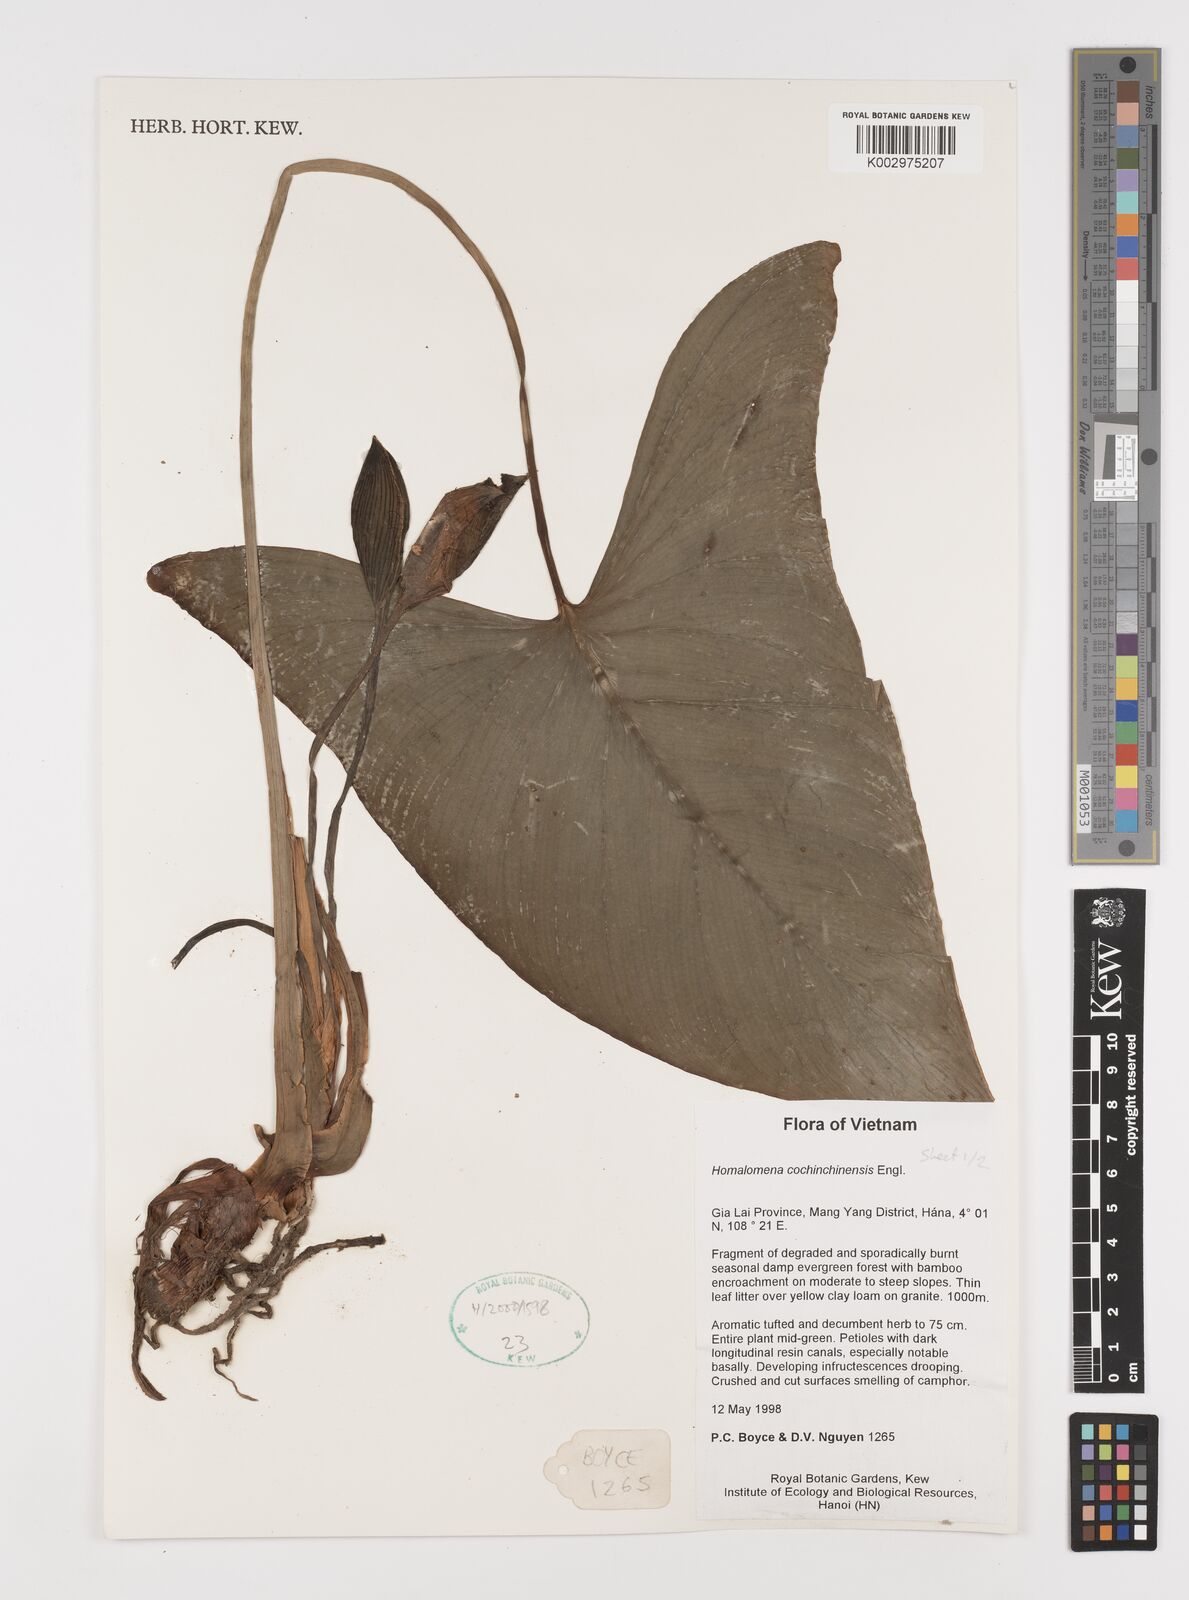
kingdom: Plantae
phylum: Tracheophyta
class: Liliopsida
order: Alismatales
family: Araceae
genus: Homalomena
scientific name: Homalomena cochinchinensis
